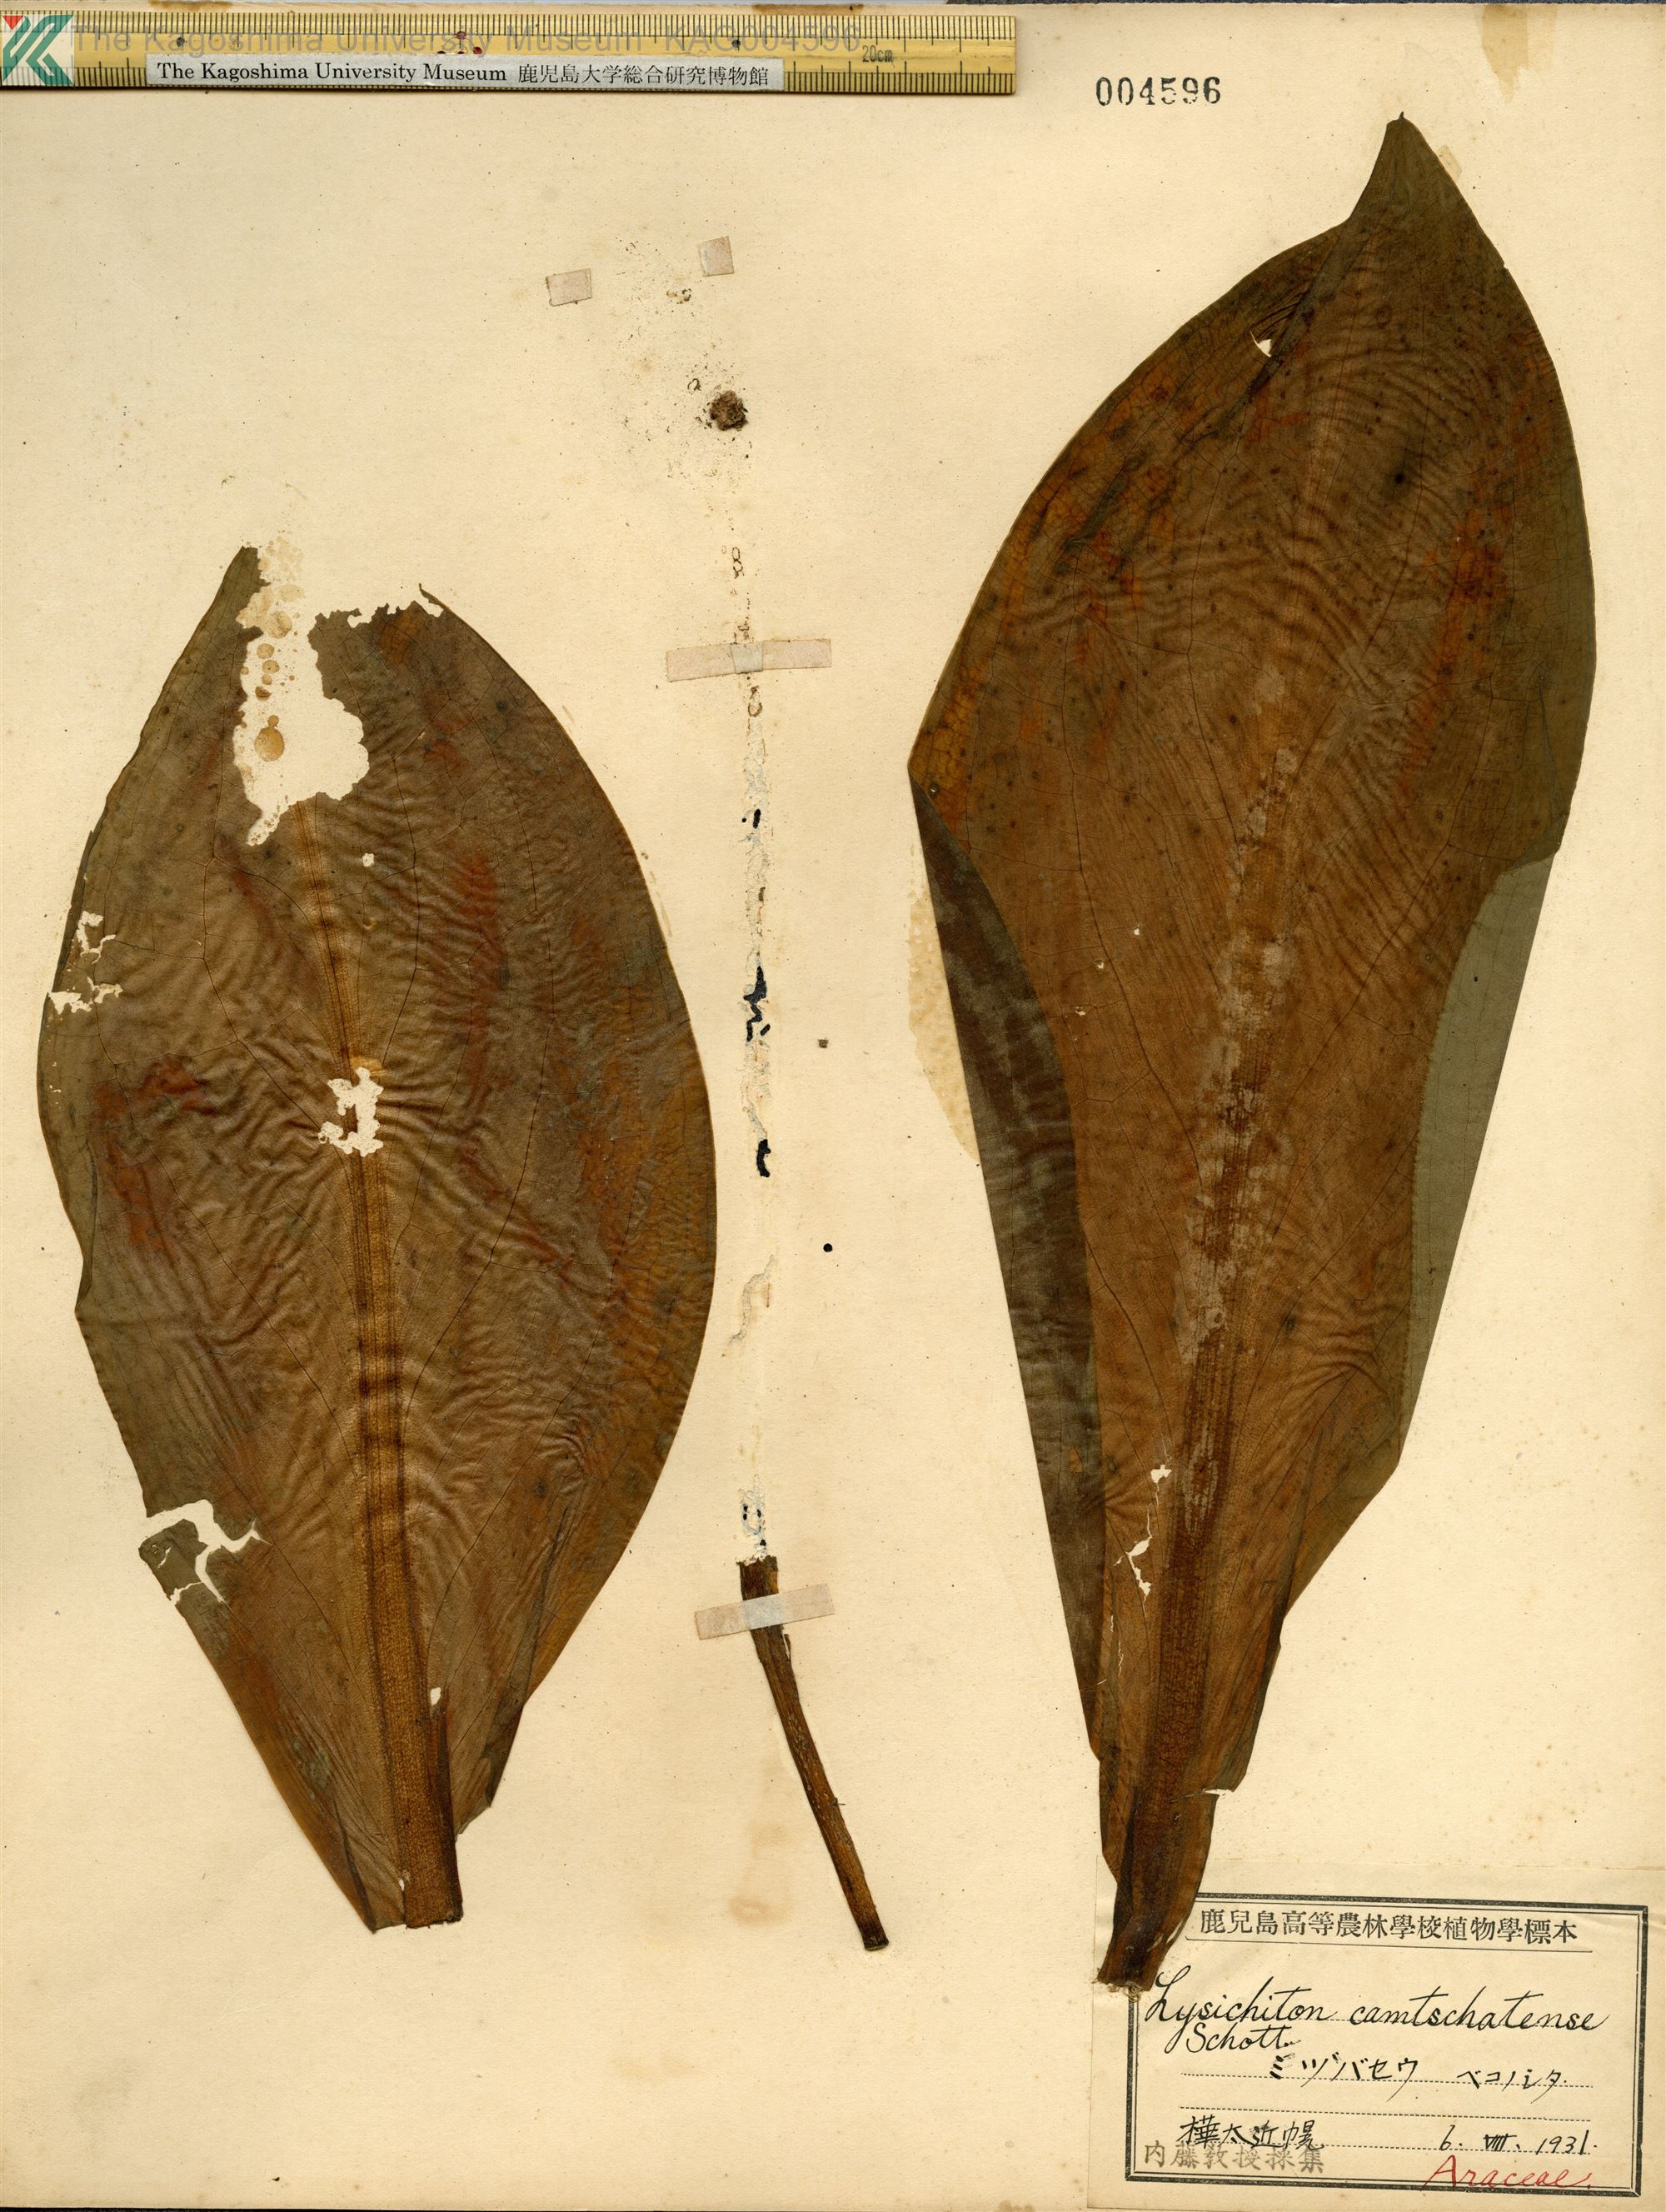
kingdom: Plantae
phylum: Tracheophyta
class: Liliopsida
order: Alismatales
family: Araceae
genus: Lysichiton
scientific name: Lysichiton camtschatcensis
